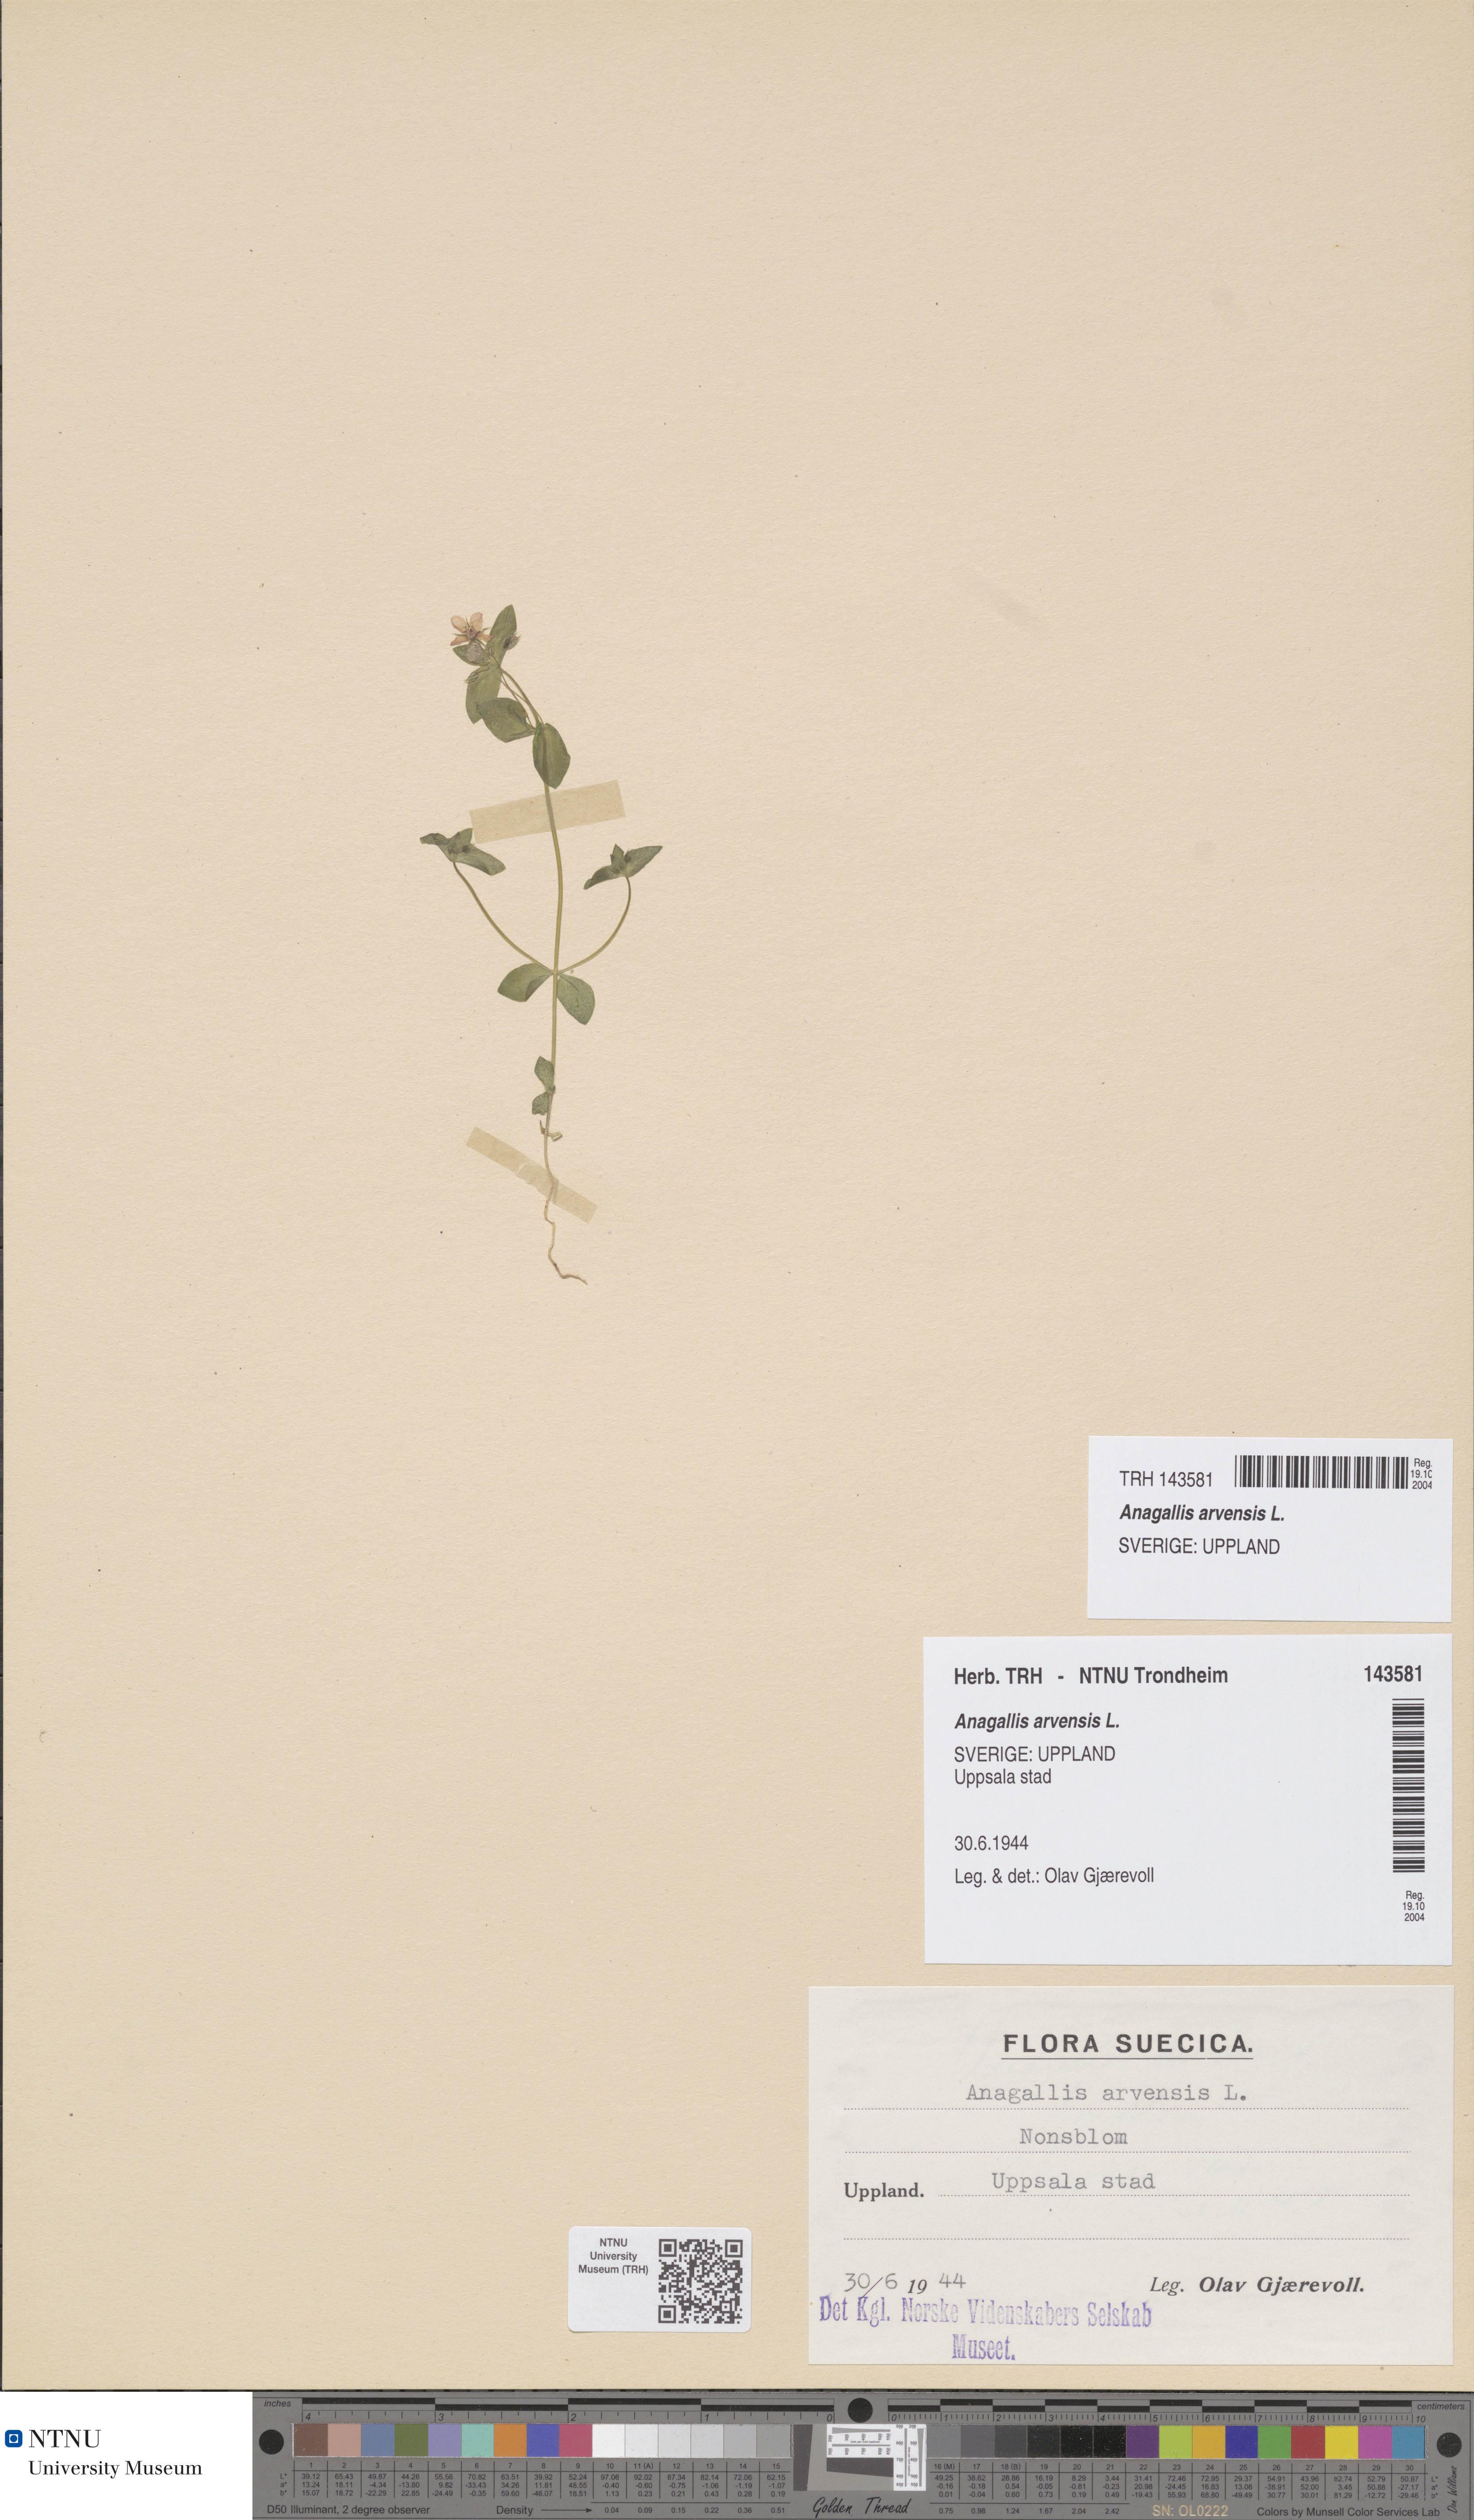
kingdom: Plantae
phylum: Tracheophyta
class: Magnoliopsida
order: Ericales
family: Primulaceae
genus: Lysimachia
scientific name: Lysimachia arvensis
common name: Scarlet pimpernel
